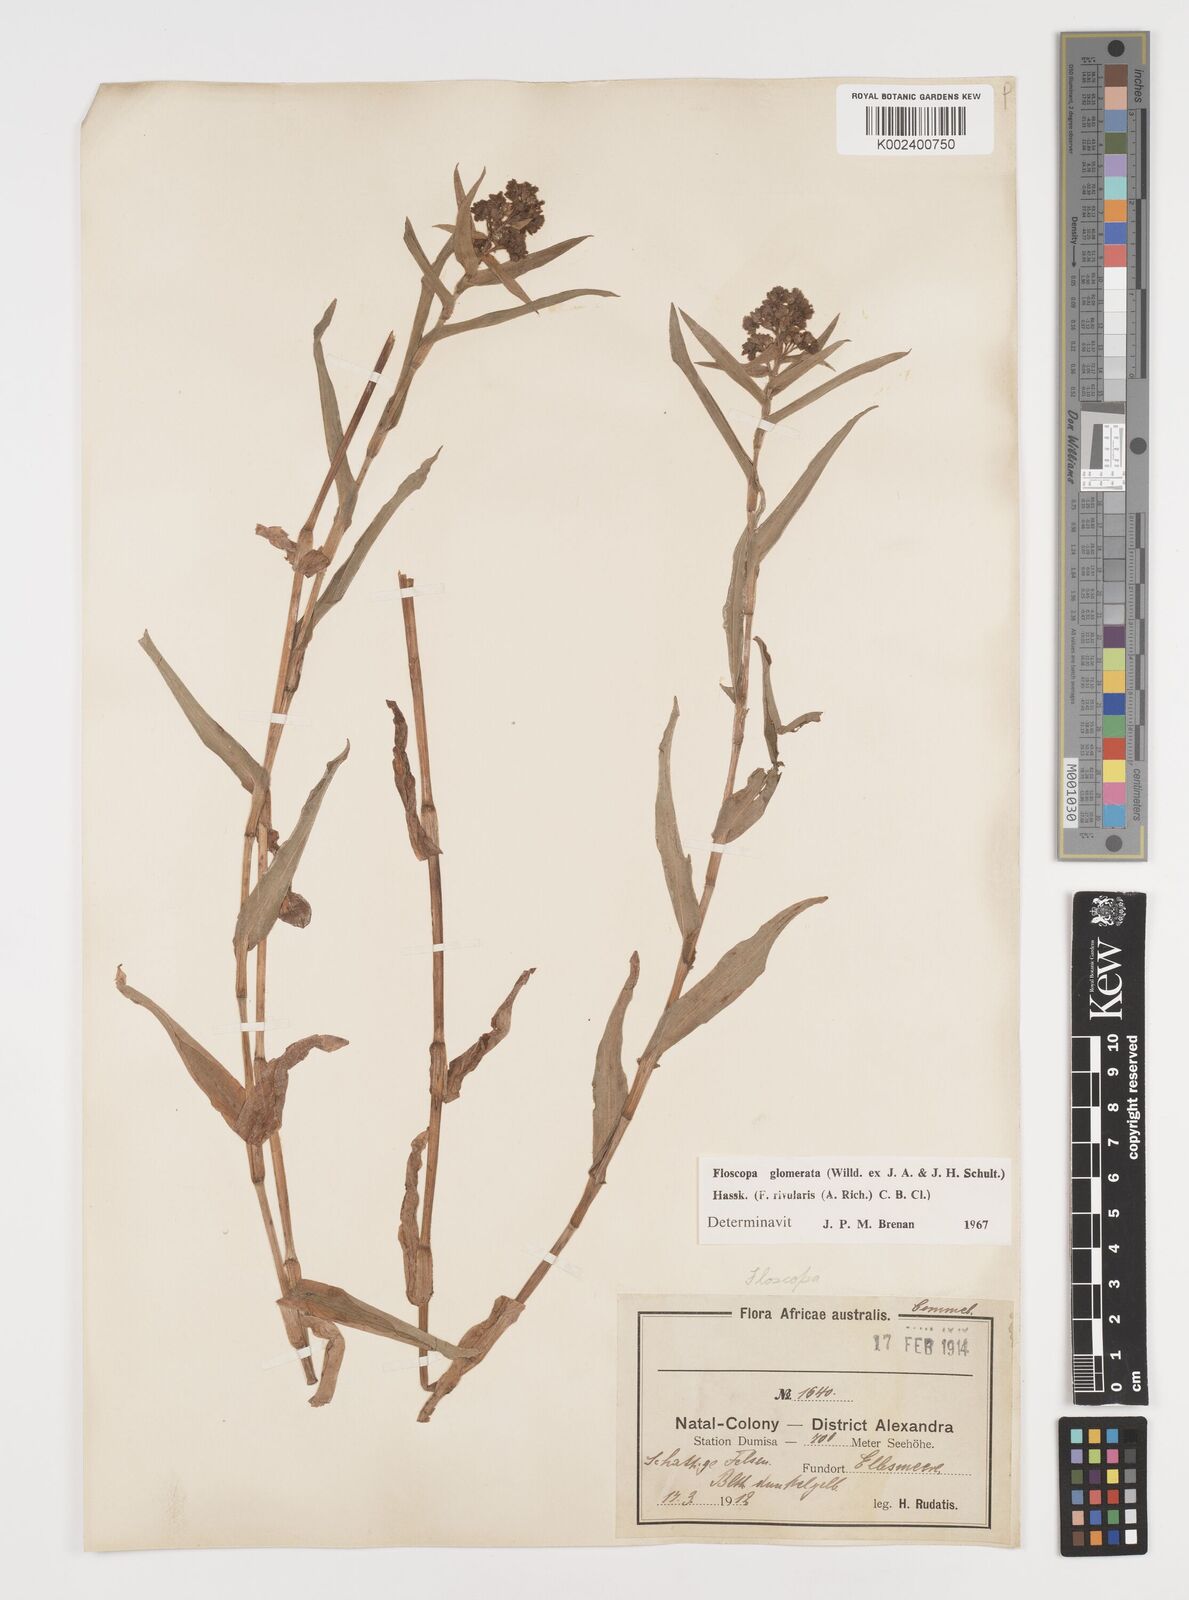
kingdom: Plantae
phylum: Tracheophyta
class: Liliopsida
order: Commelinales
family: Commelinaceae
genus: Floscopa
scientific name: Floscopa glomerata
